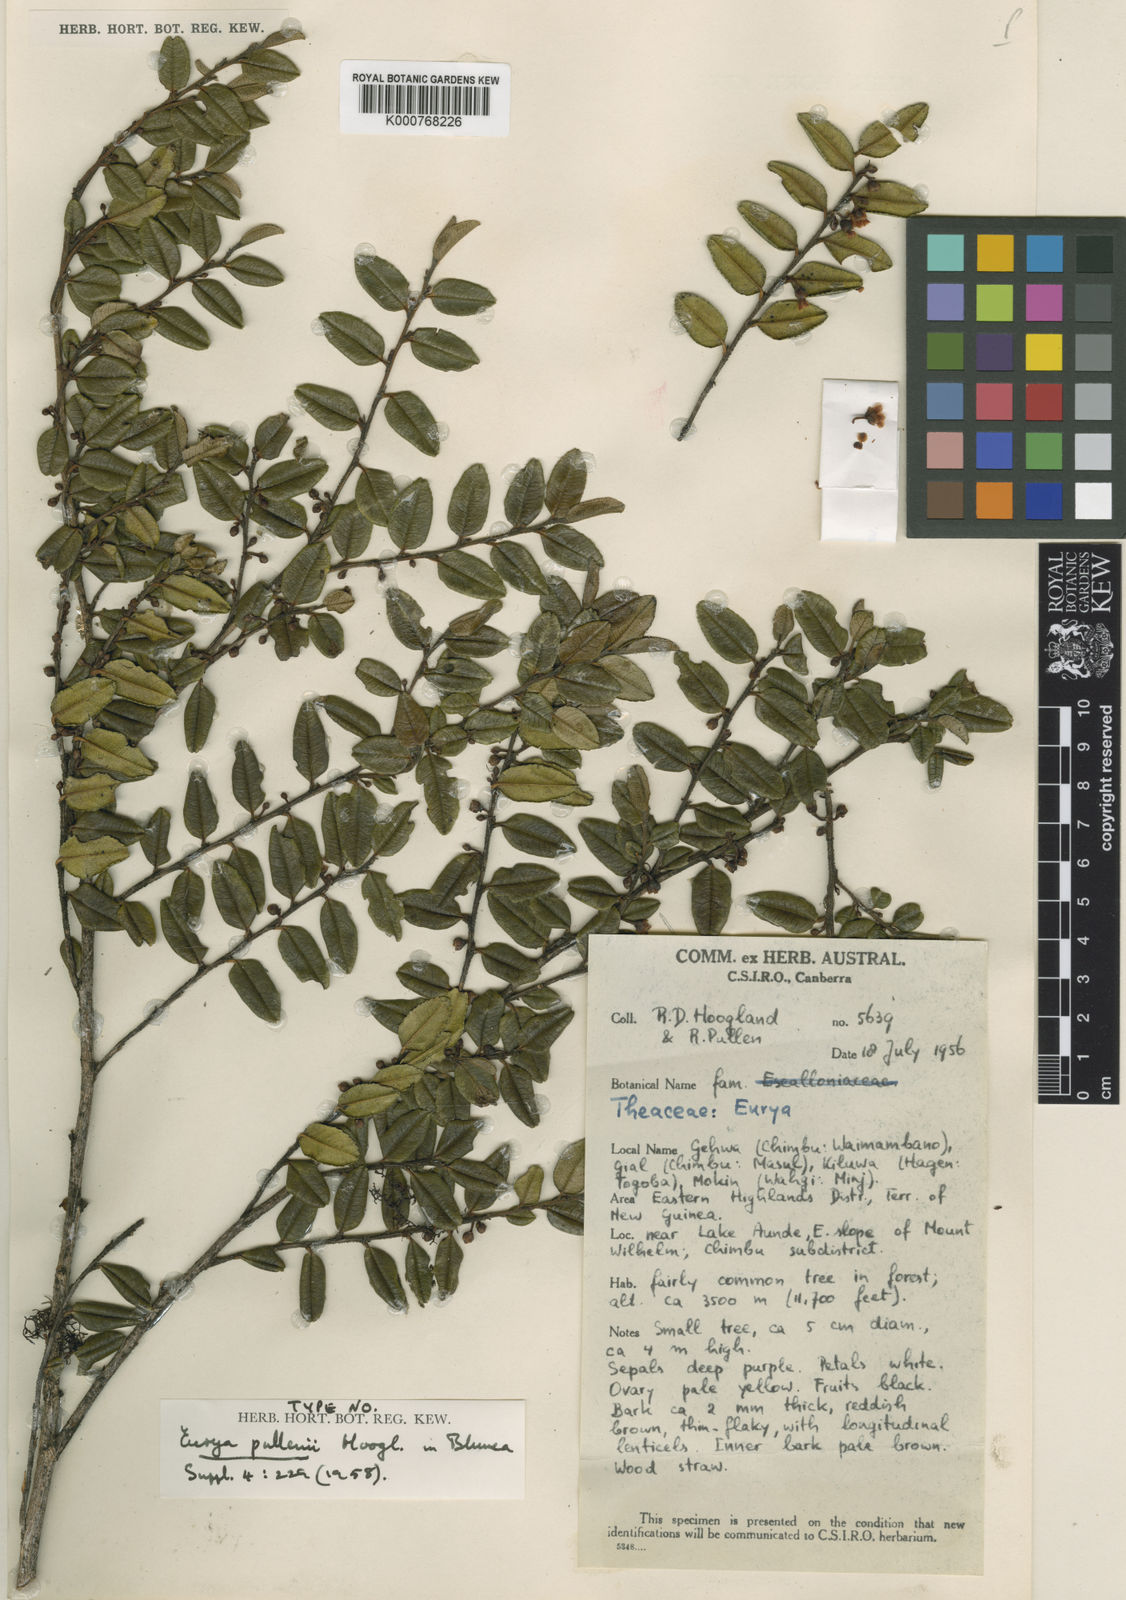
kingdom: Plantae
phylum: Tracheophyta
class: Magnoliopsida
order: Ericales
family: Pentaphylacaceae
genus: Eurya
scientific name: Eurya pullenii
